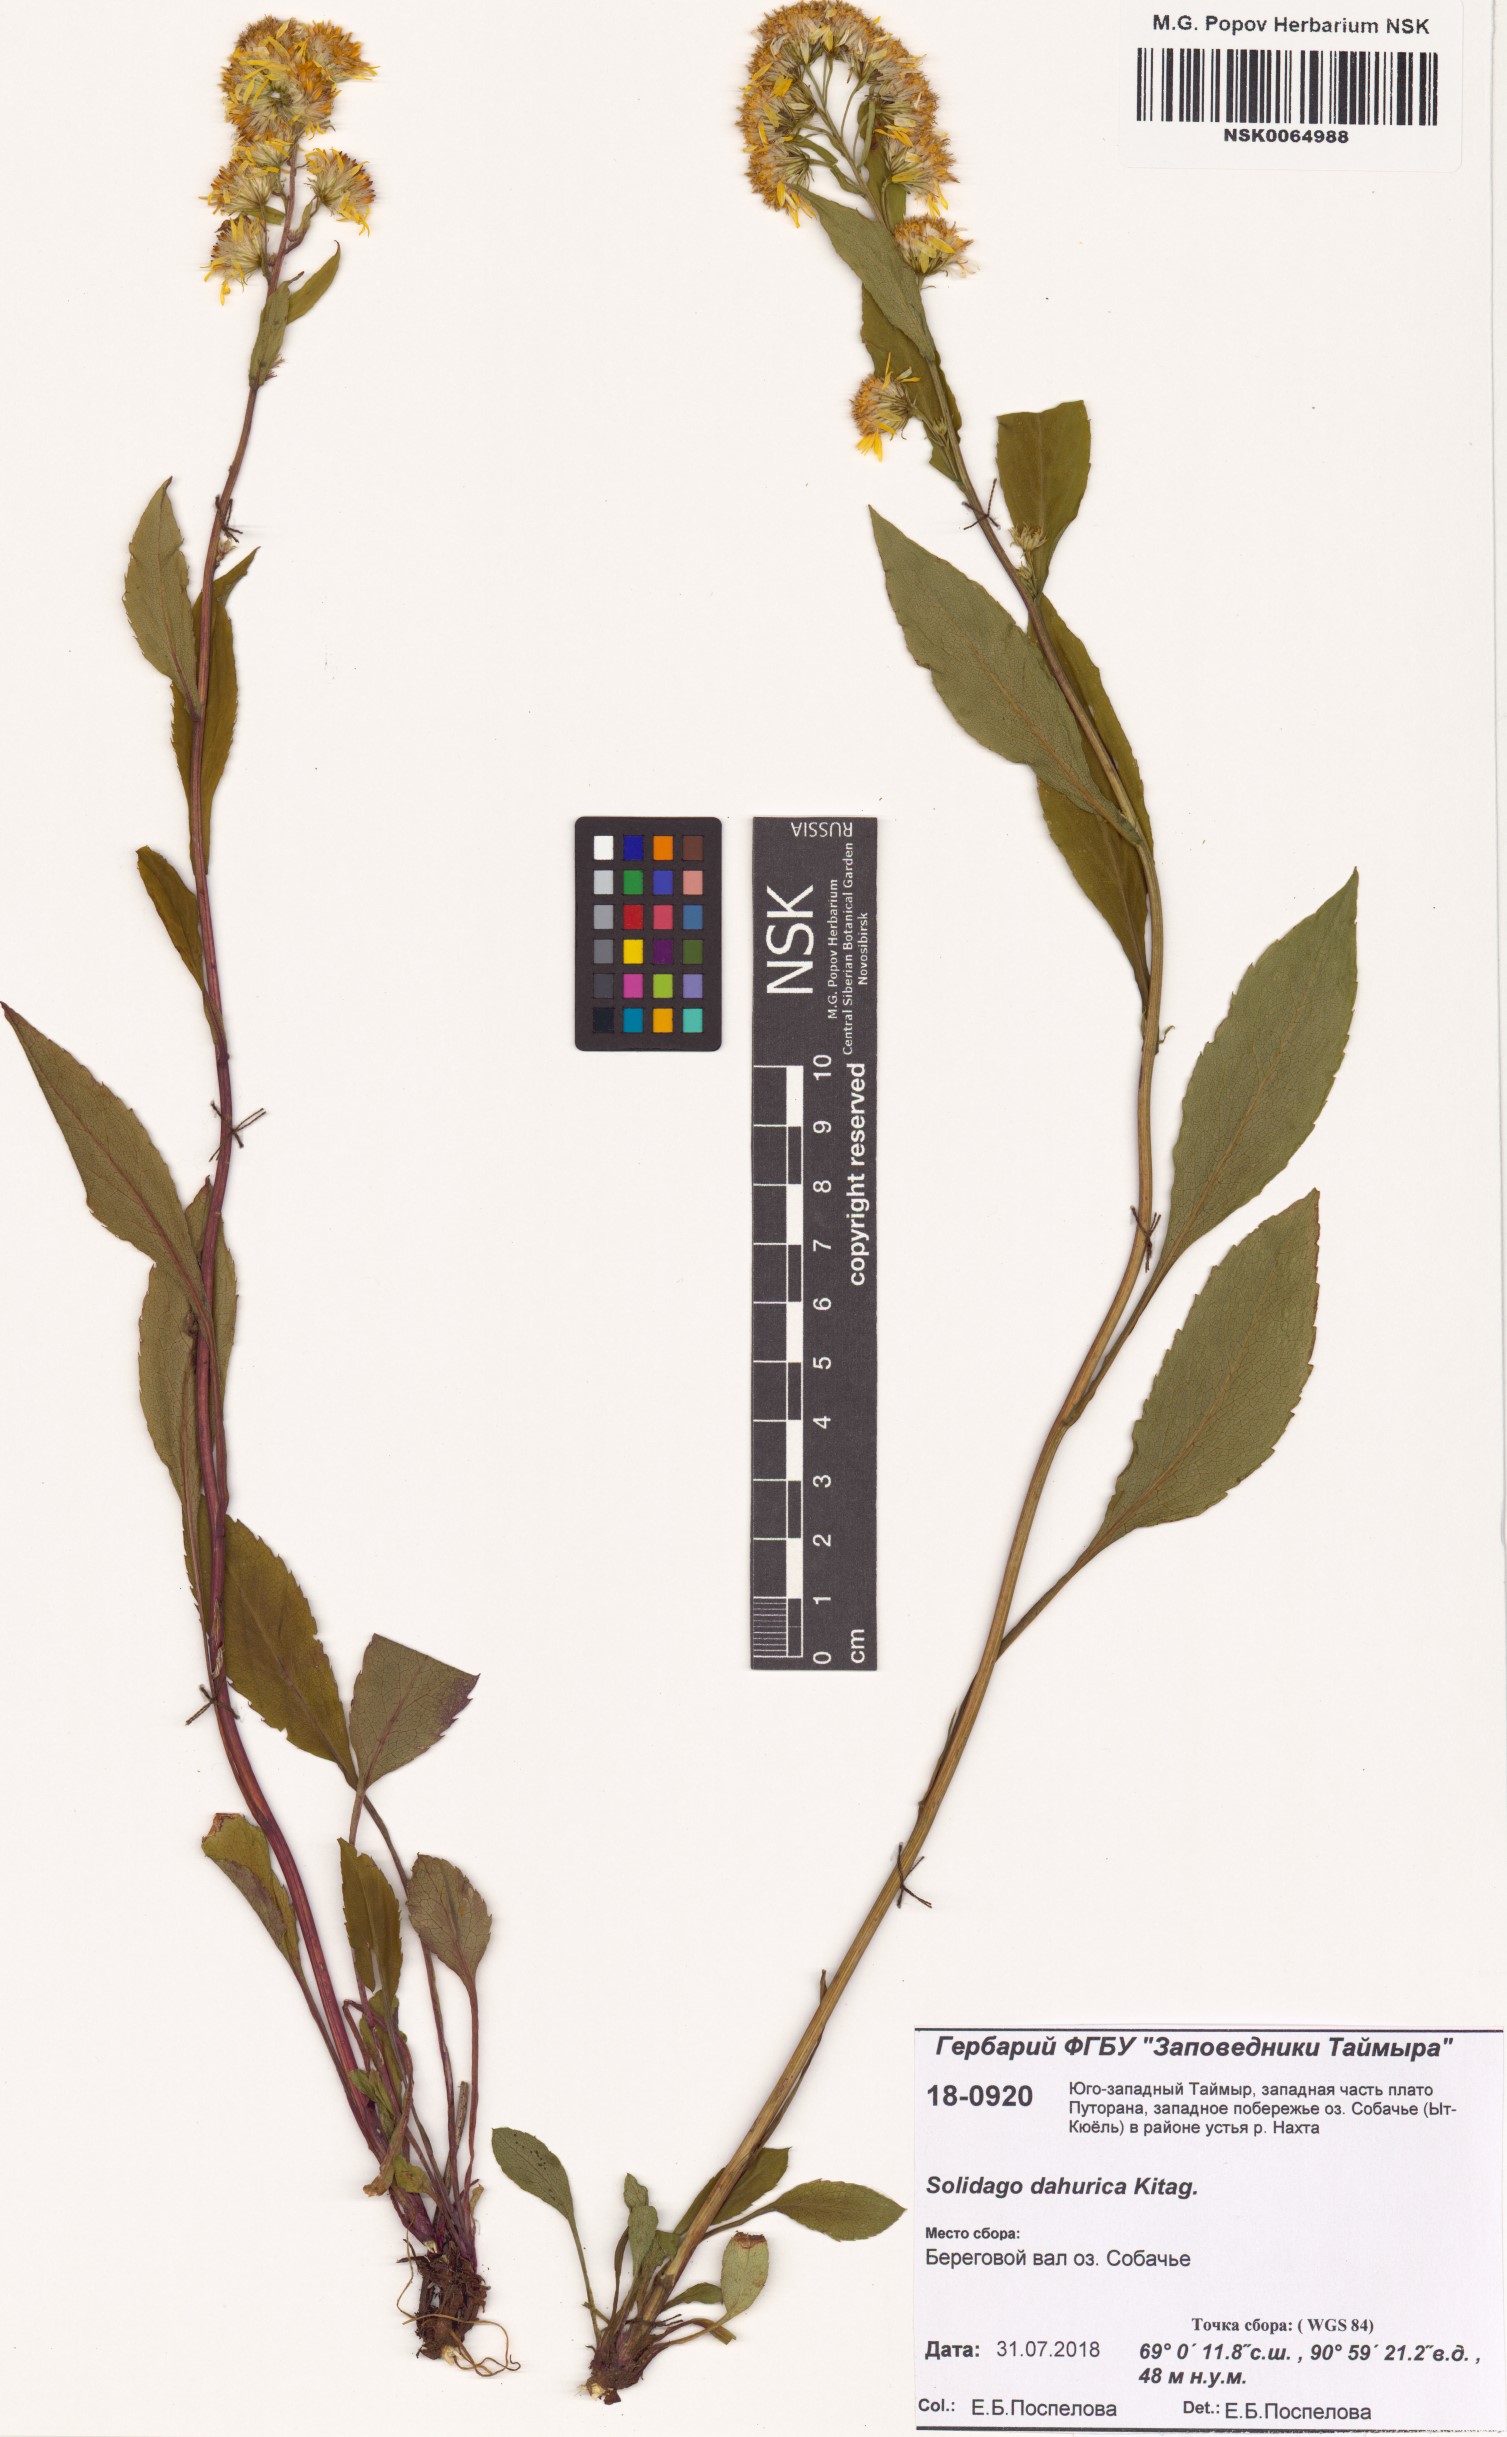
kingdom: Plantae
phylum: Tracheophyta
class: Magnoliopsida
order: Asterales
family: Asteraceae
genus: Solidago
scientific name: Solidago dahurica
